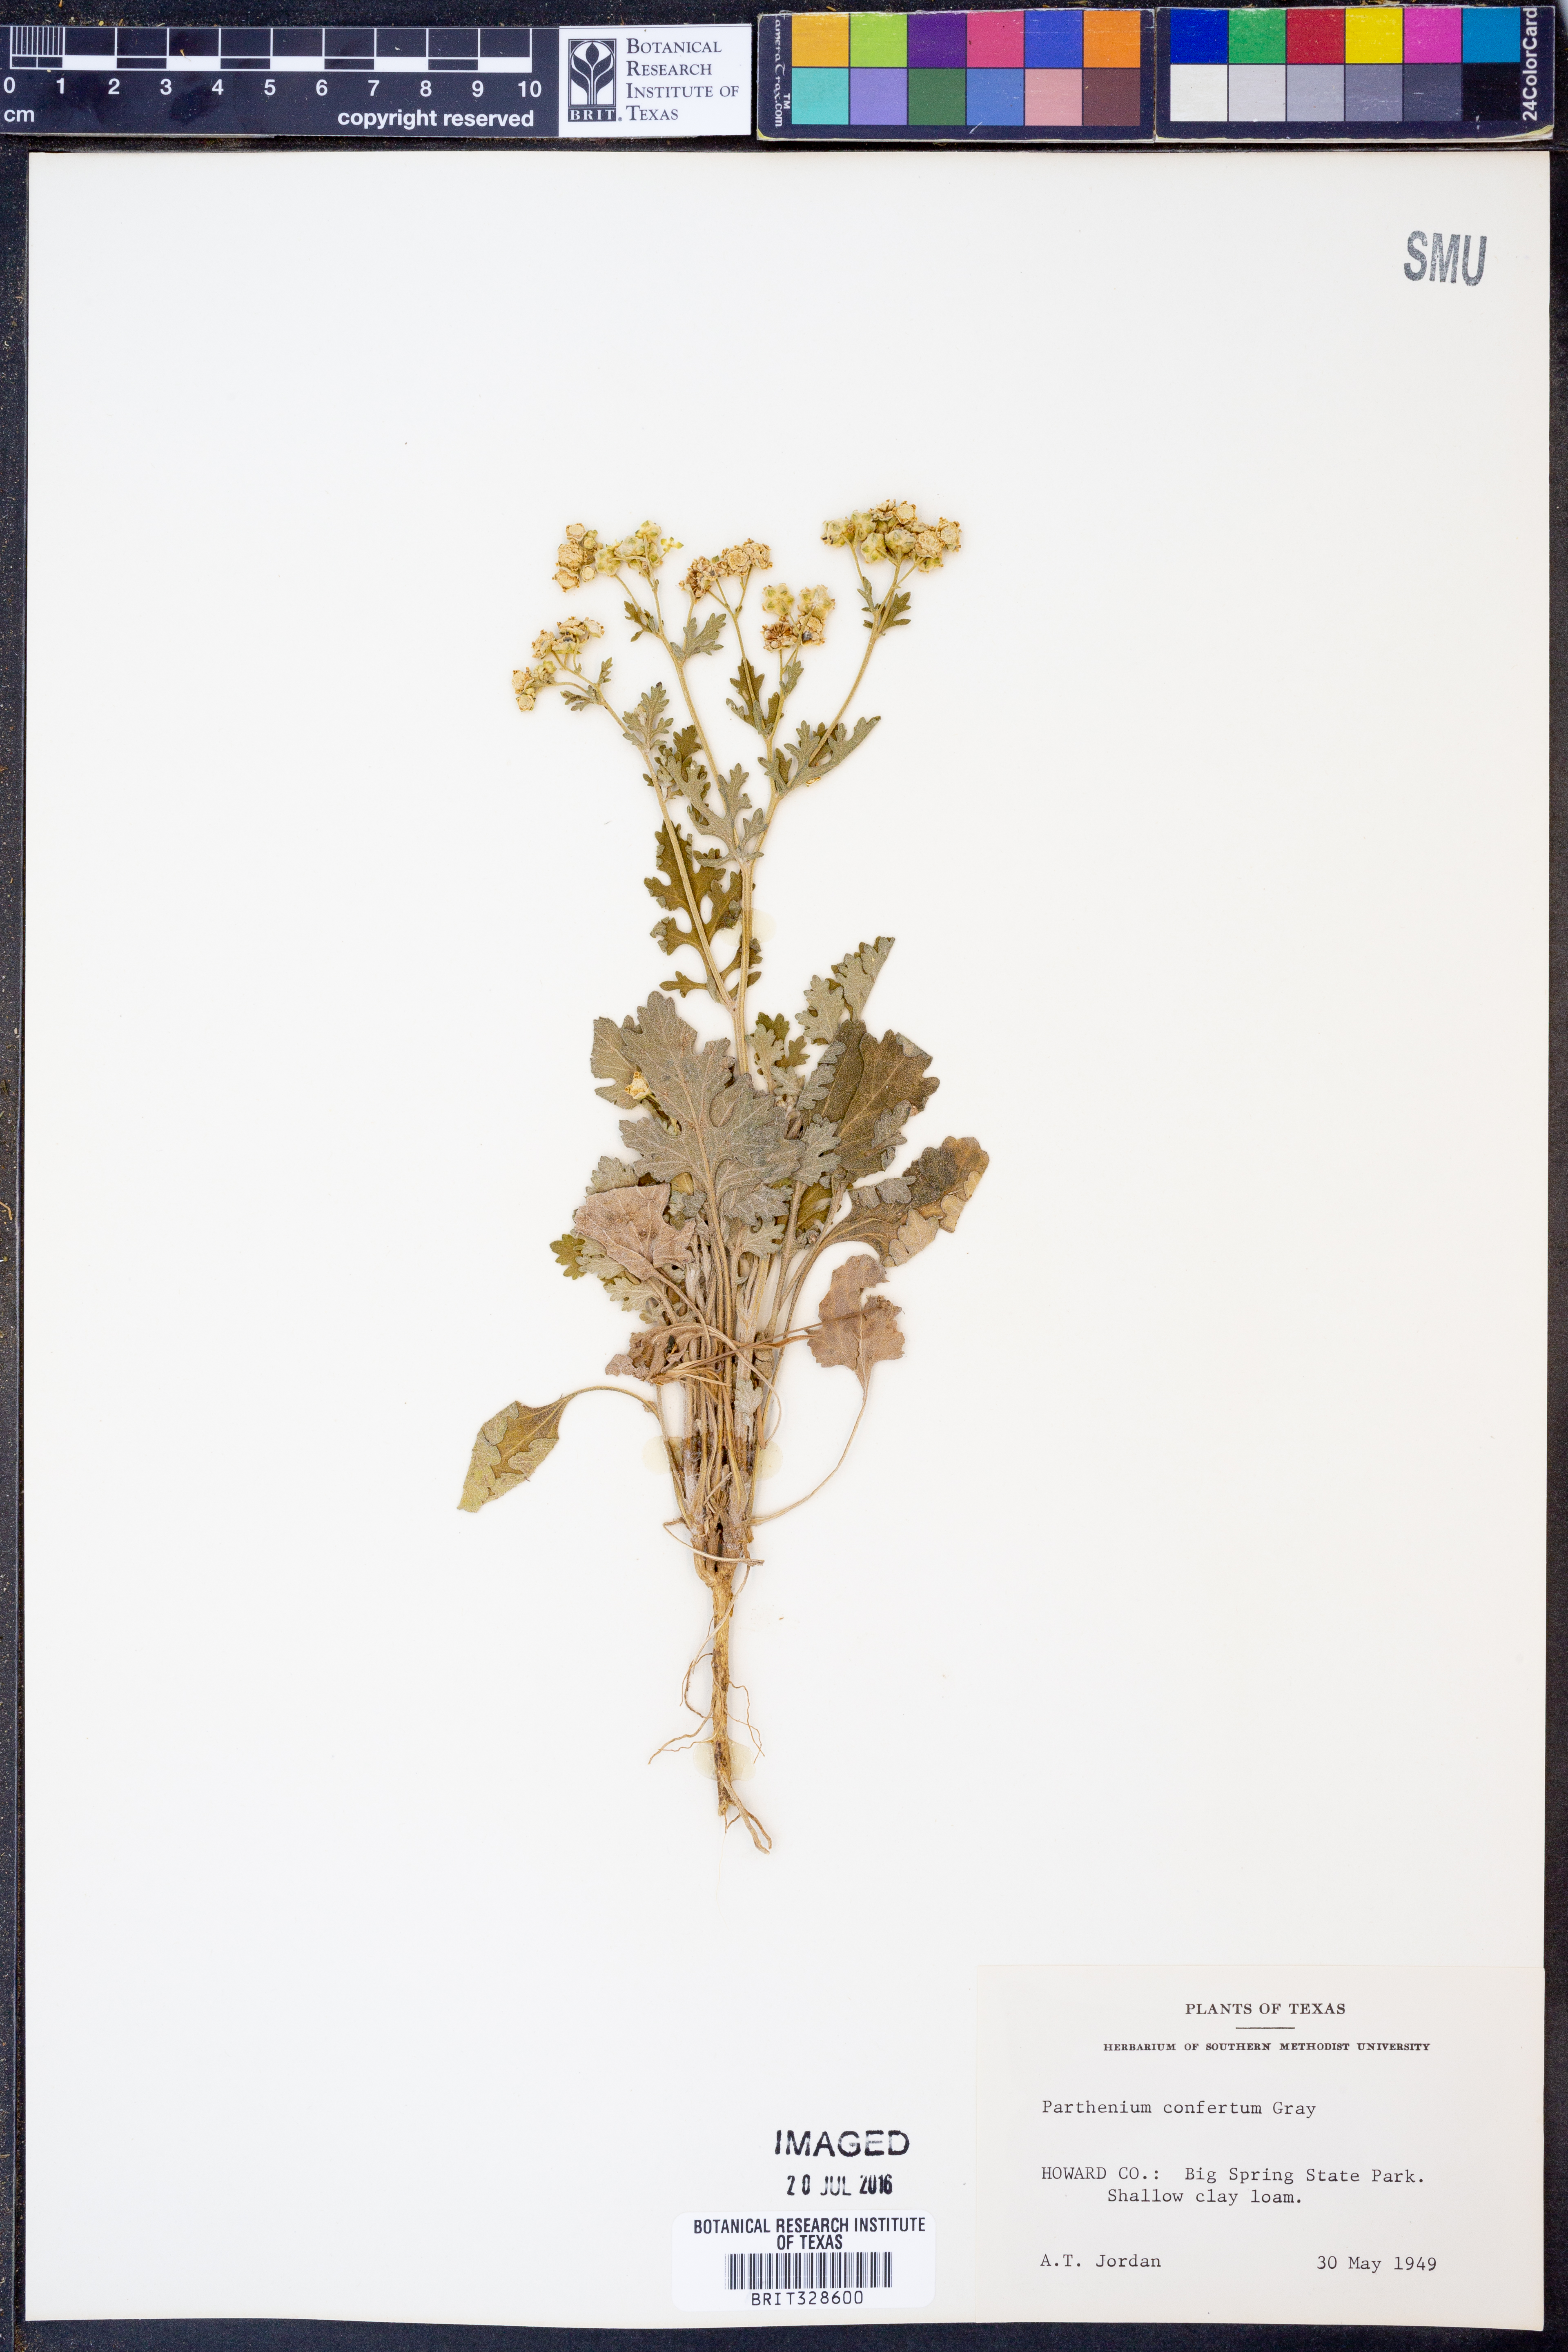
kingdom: Plantae
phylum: Tracheophyta
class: Magnoliopsida
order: Asterales
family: Asteraceae
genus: Parthenium
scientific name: Parthenium confertum
